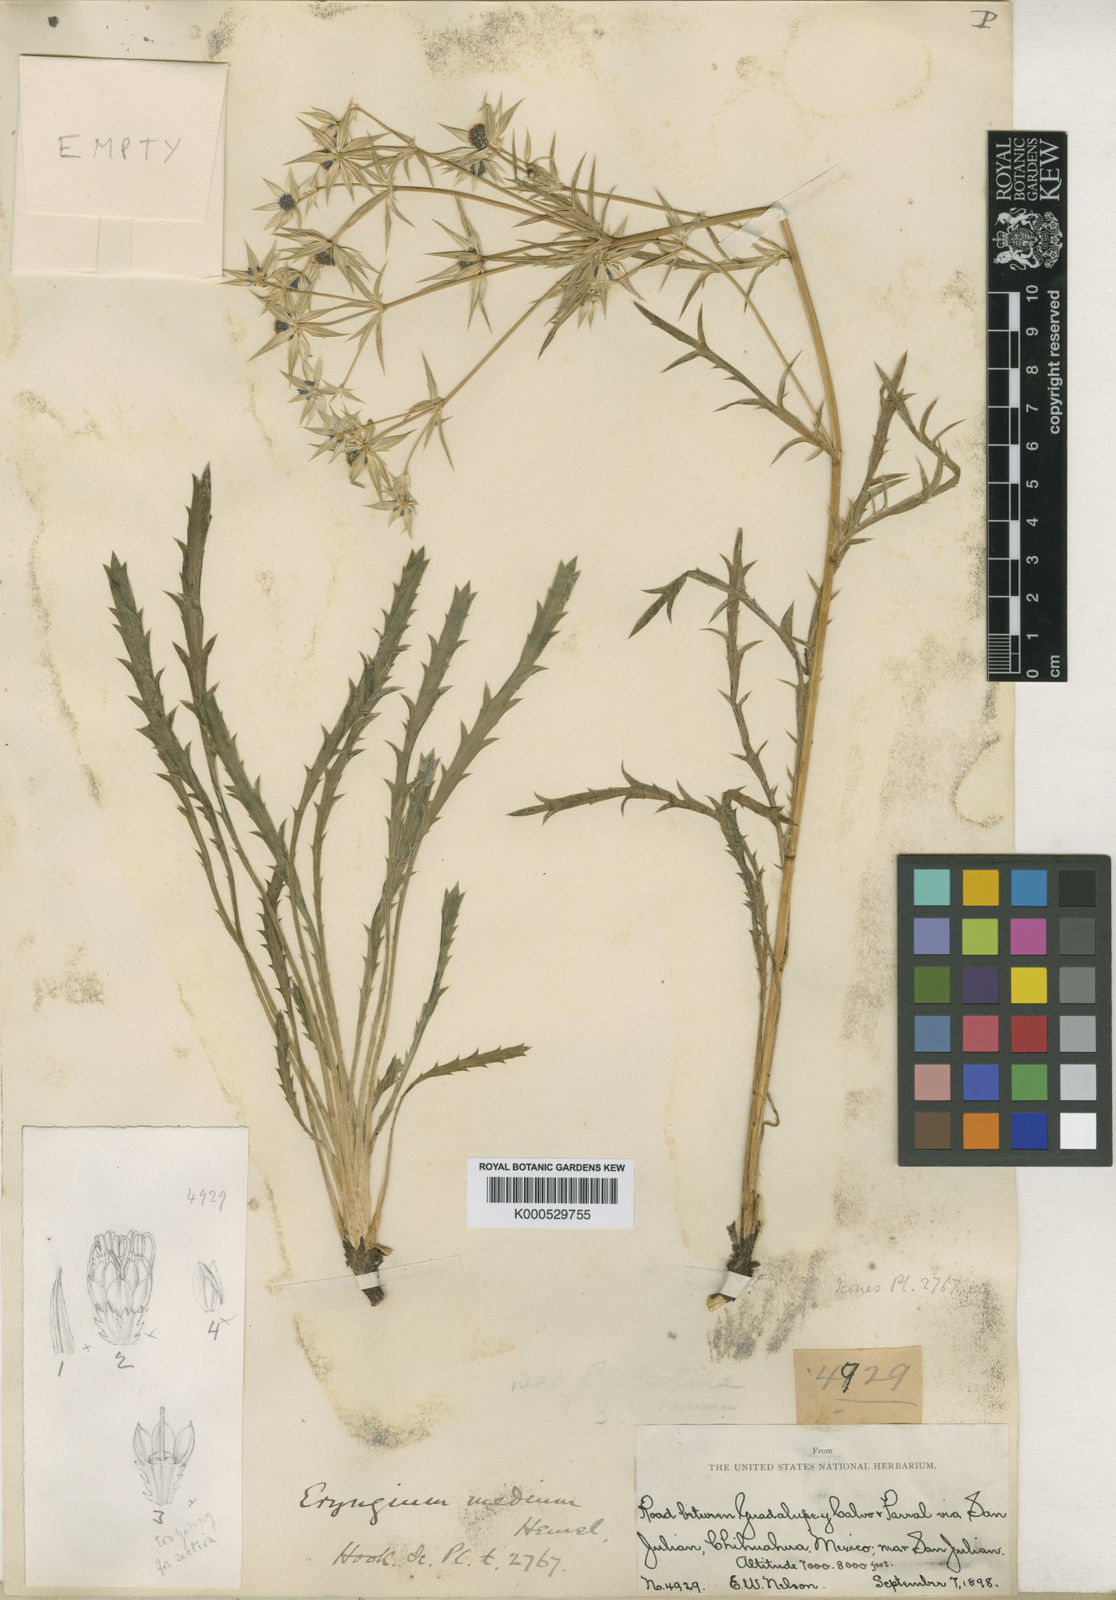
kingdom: Plantae
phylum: Tracheophyta
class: Magnoliopsida
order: Apiales
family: Apiaceae
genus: Eryngium
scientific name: Eryngium heterophyllum
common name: Mexican thistle
